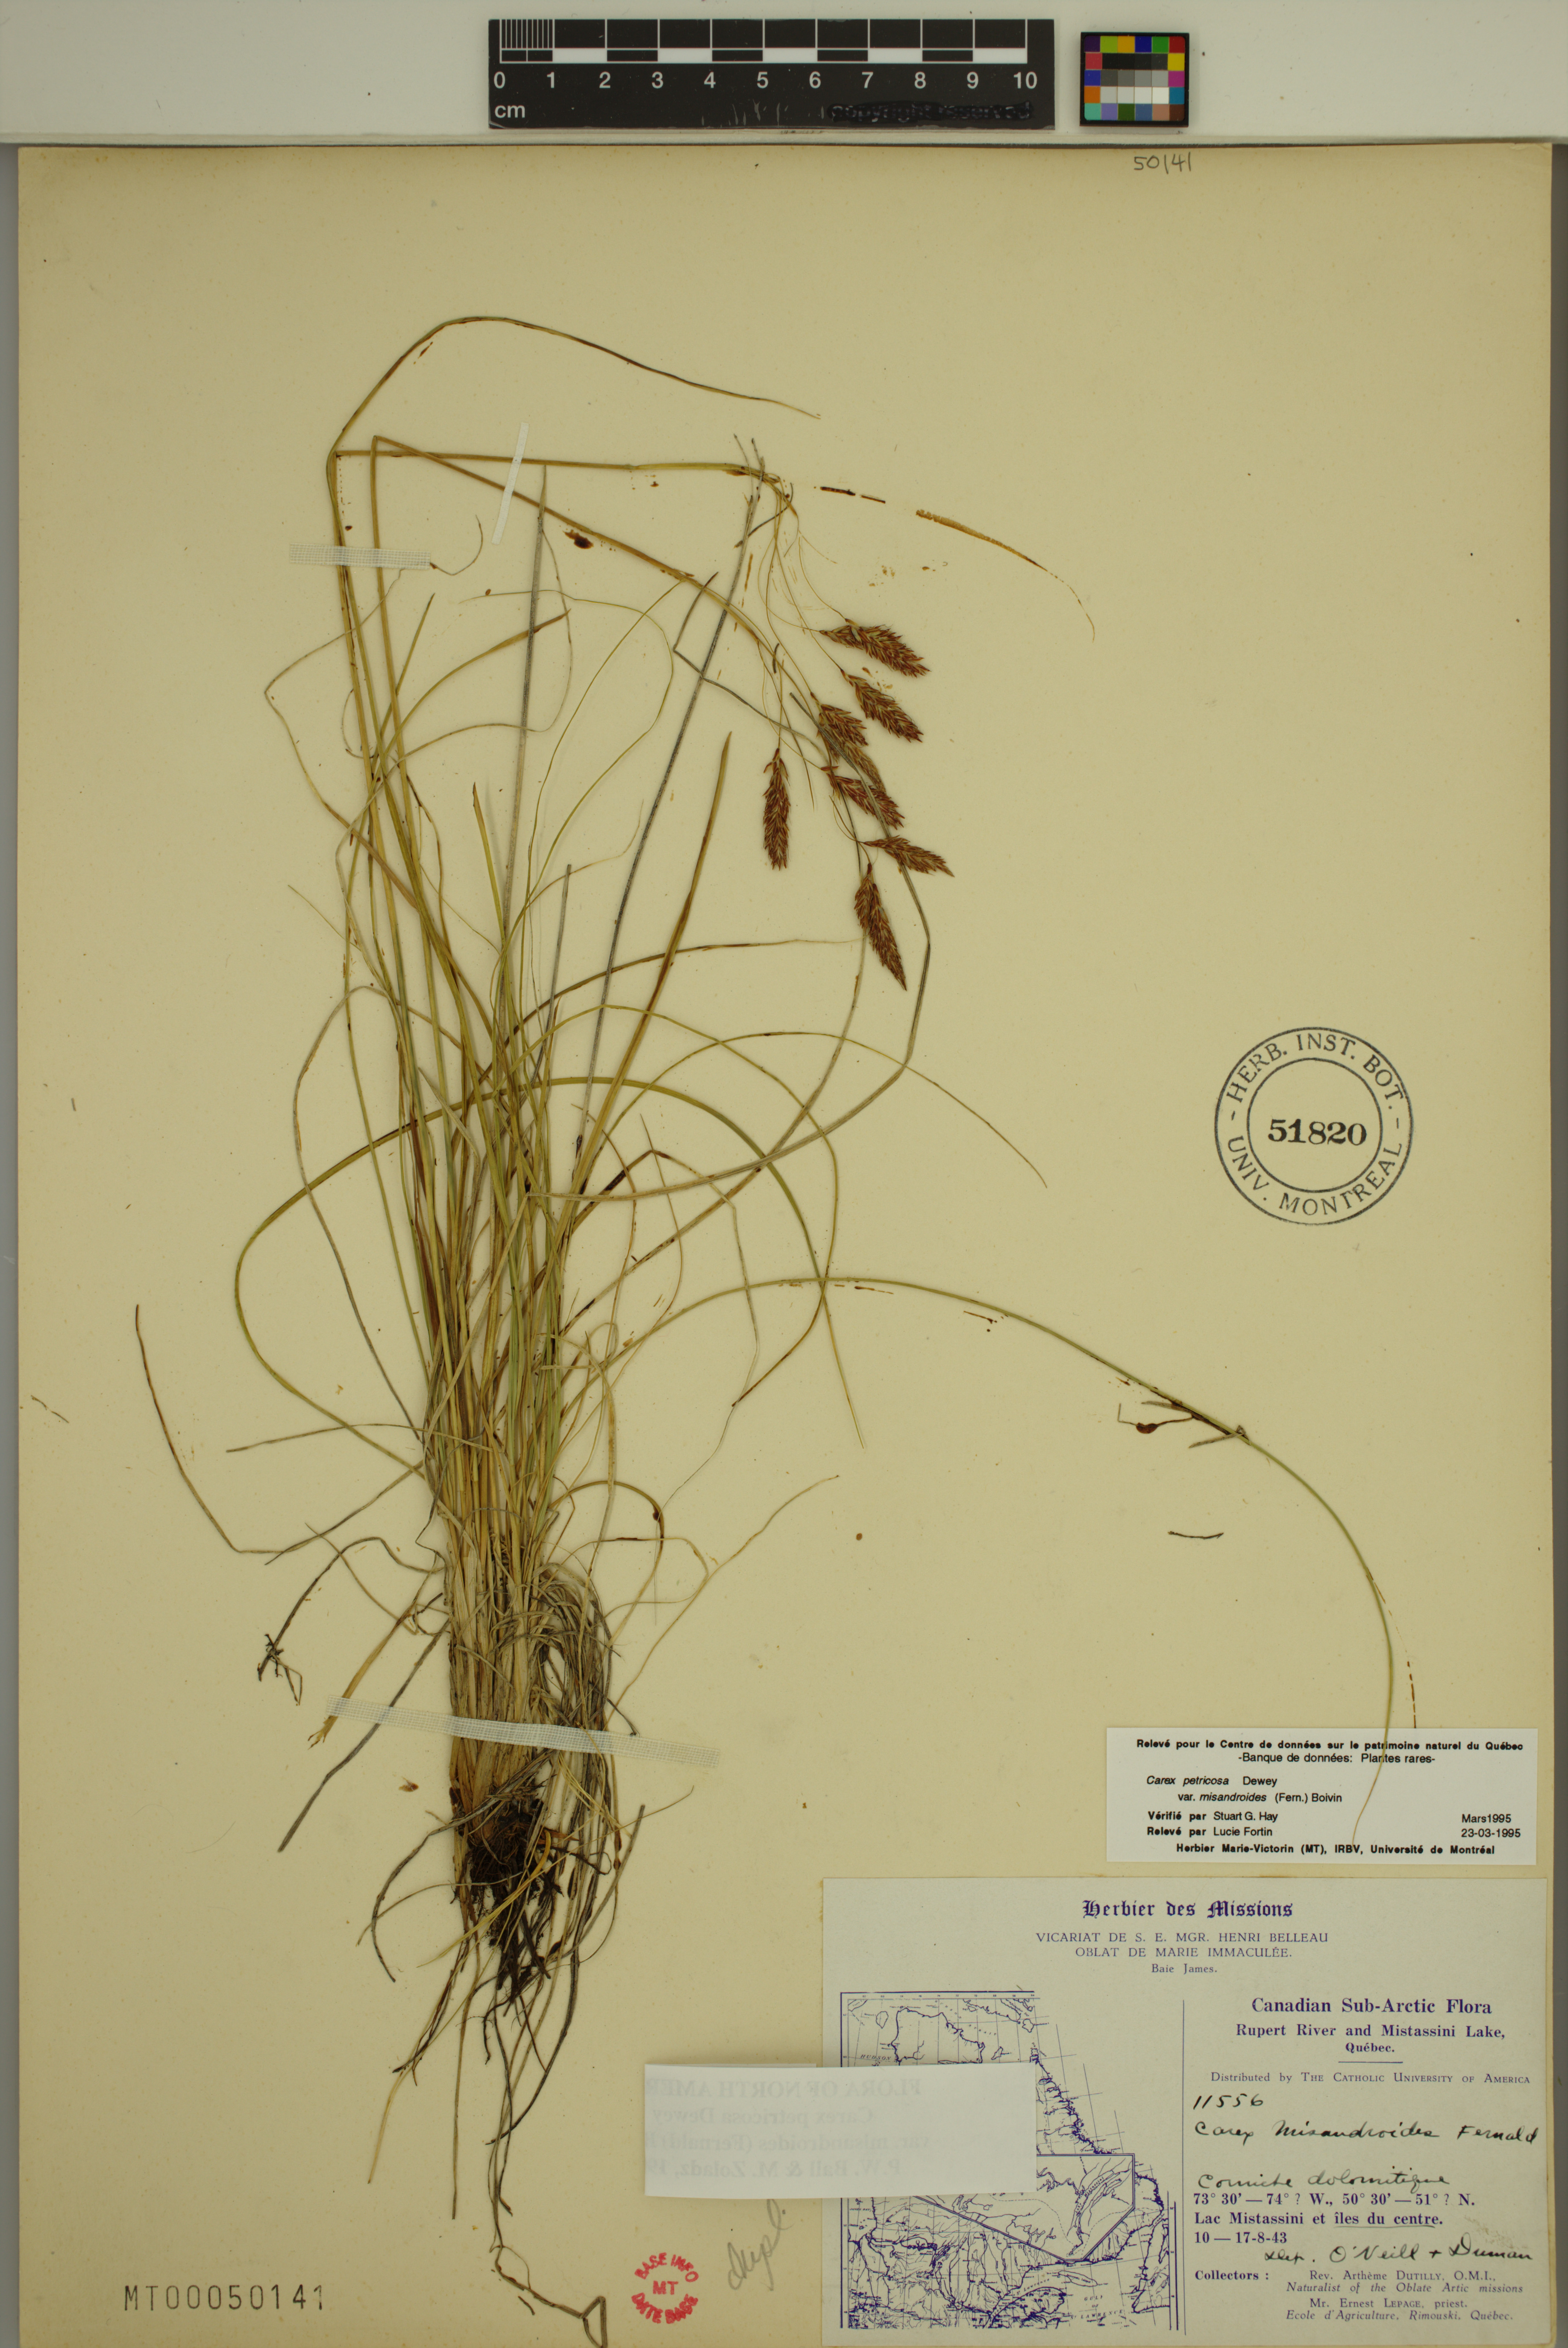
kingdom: Plantae
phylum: Tracheophyta
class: Liliopsida
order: Poales
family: Cyperaceae
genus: Carex
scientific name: Carex petricosa
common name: Rock sedge
